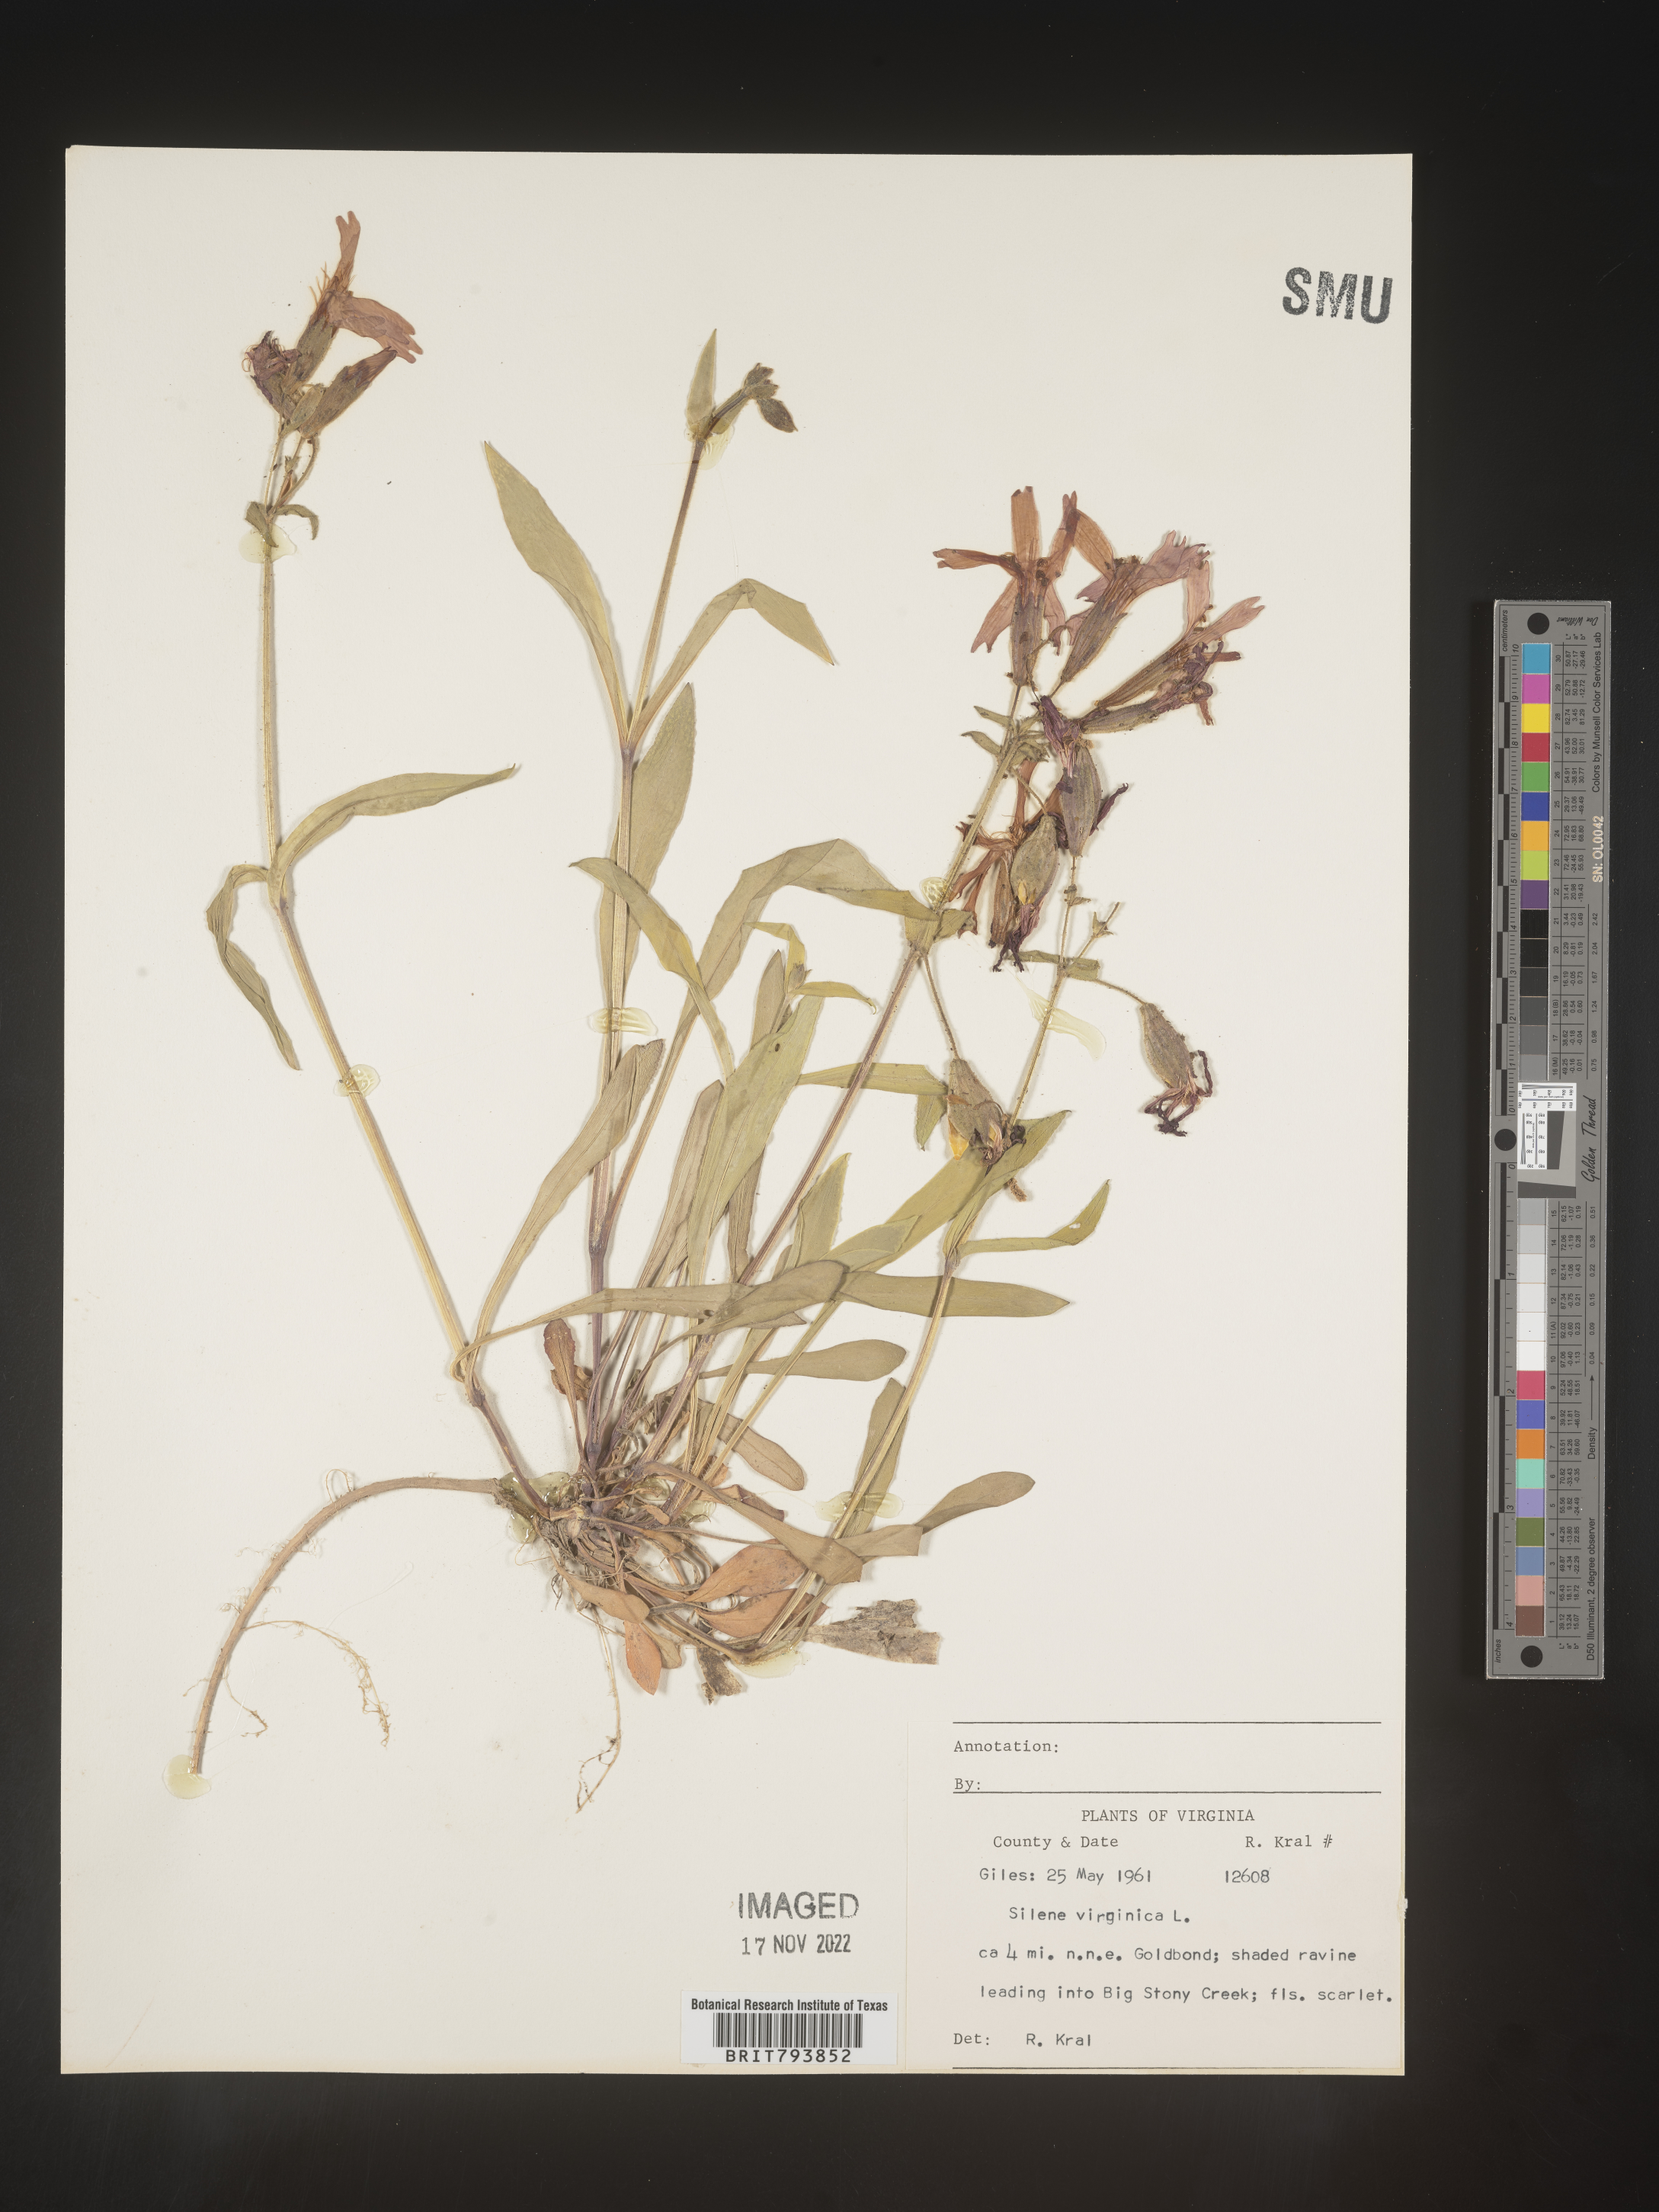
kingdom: Plantae
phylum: Tracheophyta
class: Magnoliopsida
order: Caryophyllales
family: Caryophyllaceae
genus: Silene
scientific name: Silene virginica
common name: Fire-pink
